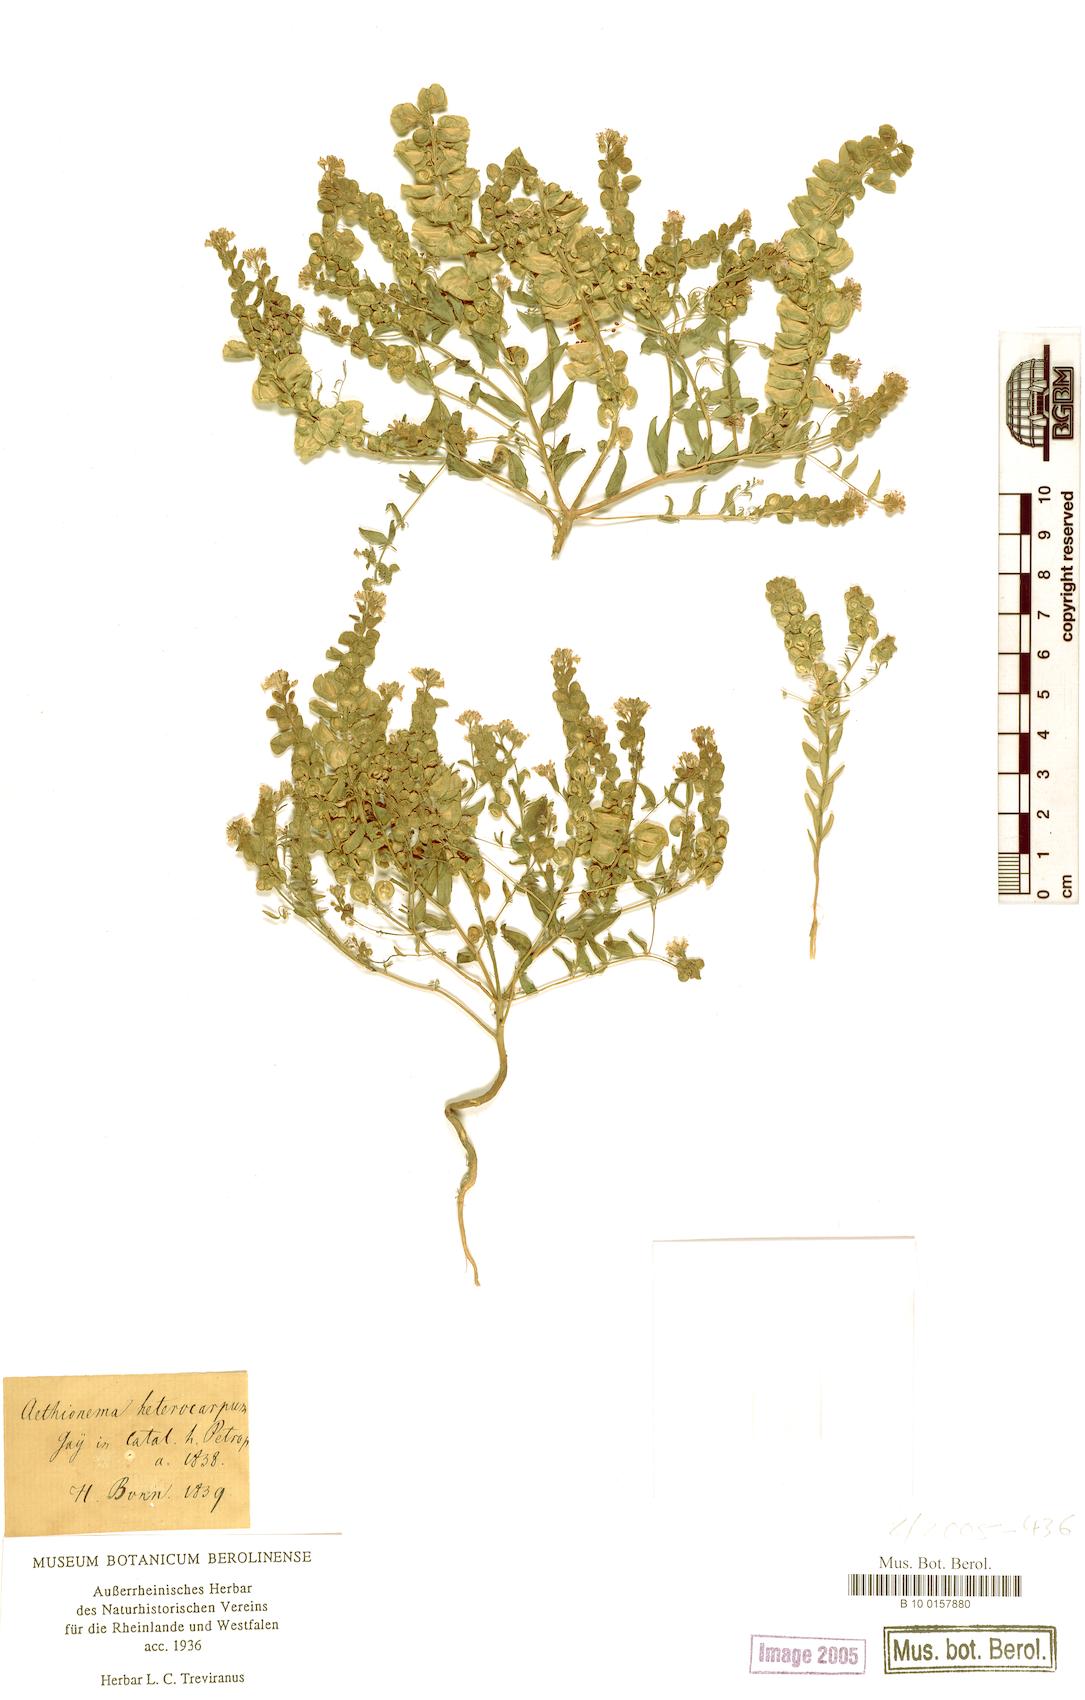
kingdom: Plantae
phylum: Tracheophyta
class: Magnoliopsida
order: Brassicales
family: Brassicaceae
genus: Aethionema
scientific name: Aethionema heterocarpum
